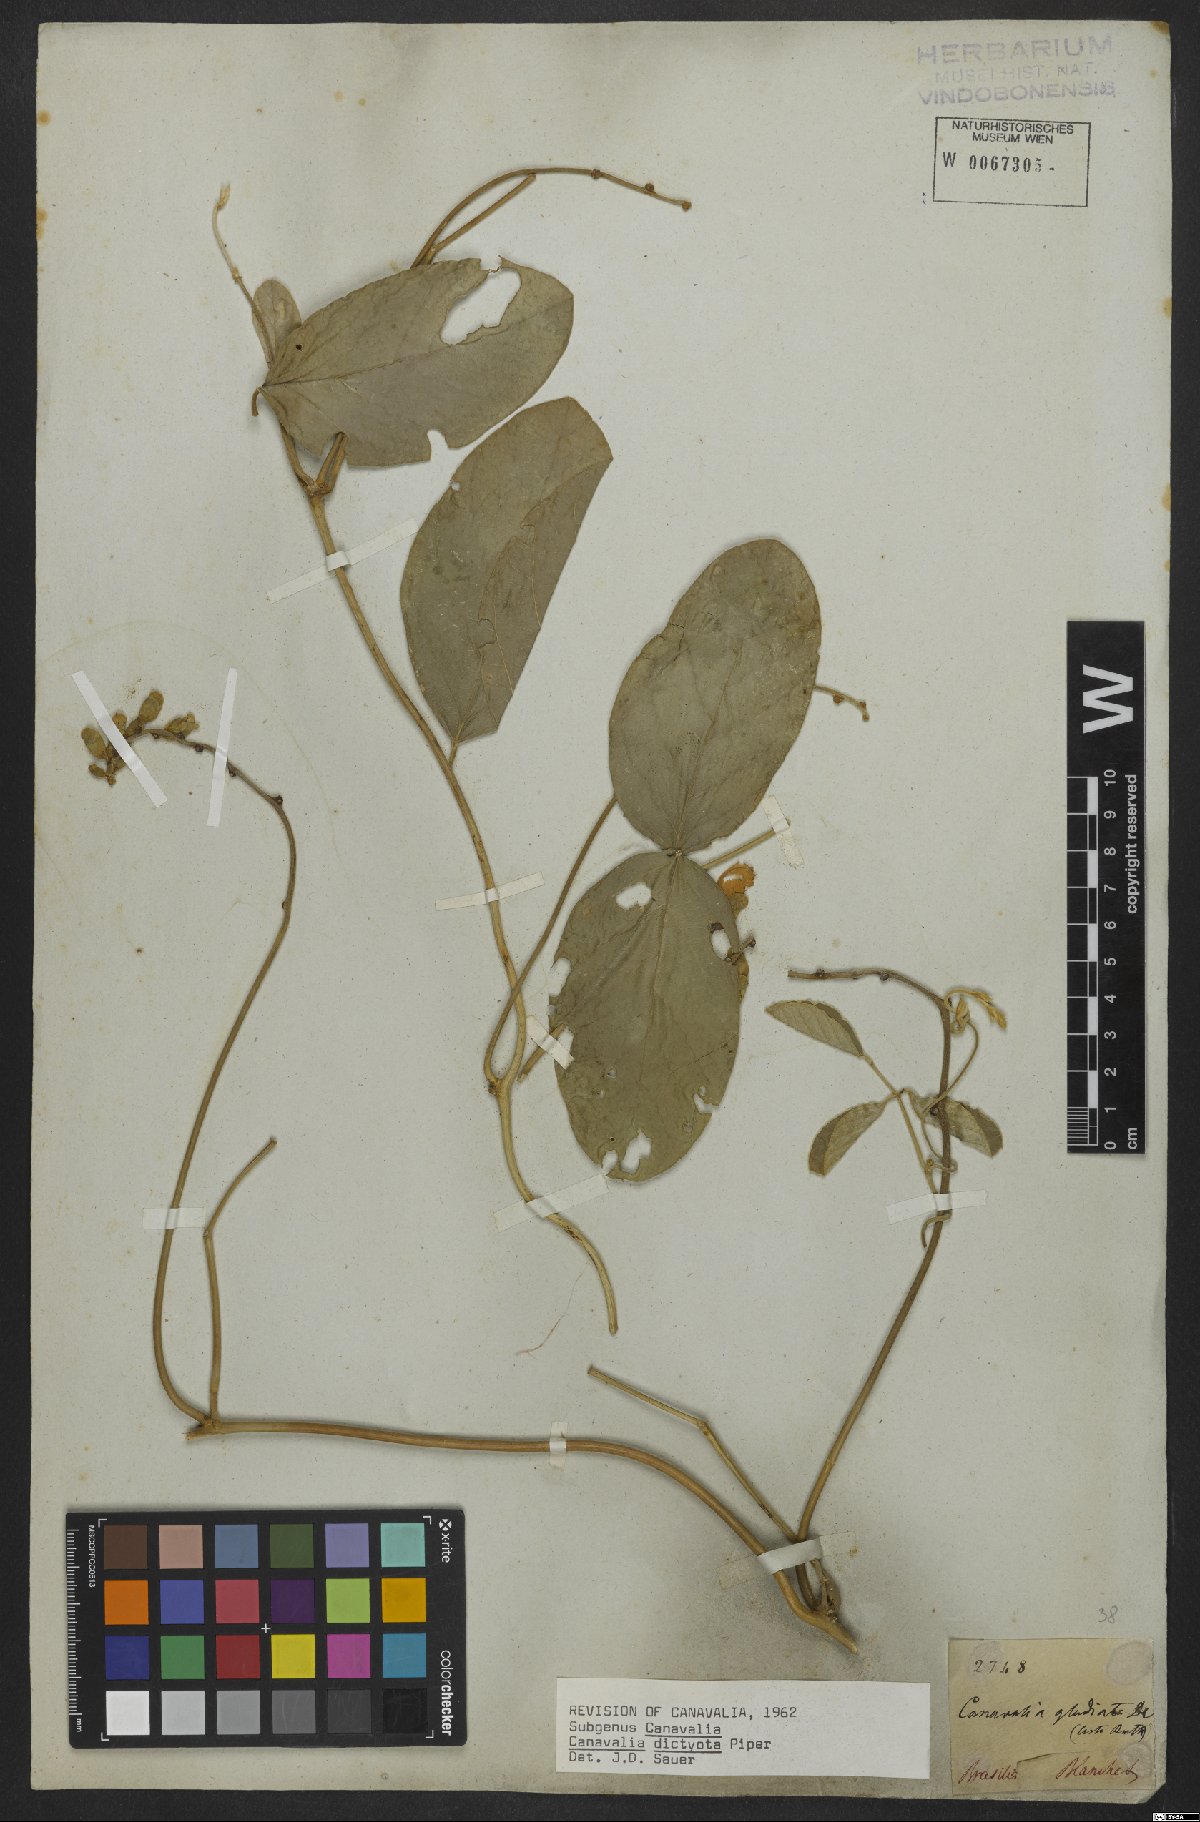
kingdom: Plantae
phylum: Tracheophyta
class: Magnoliopsida
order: Fabales
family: Fabaceae
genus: Canavalia
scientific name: Canavalia brasiliensis
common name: Barbicou-bean
